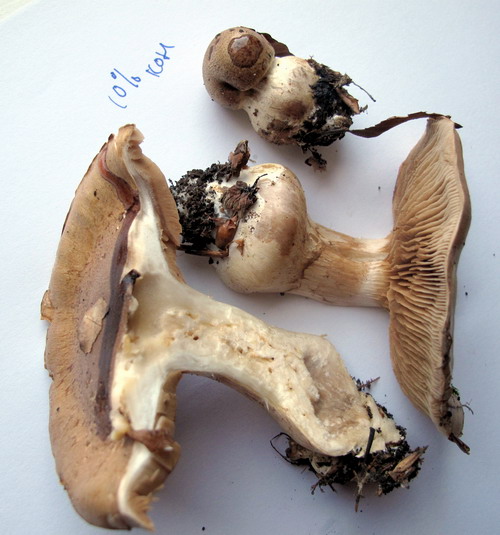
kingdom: Fungi
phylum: Basidiomycota
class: Agaricomycetes
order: Agaricales
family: Cortinariaceae
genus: Phlegmacium
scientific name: Phlegmacium ochraceobrunneum
